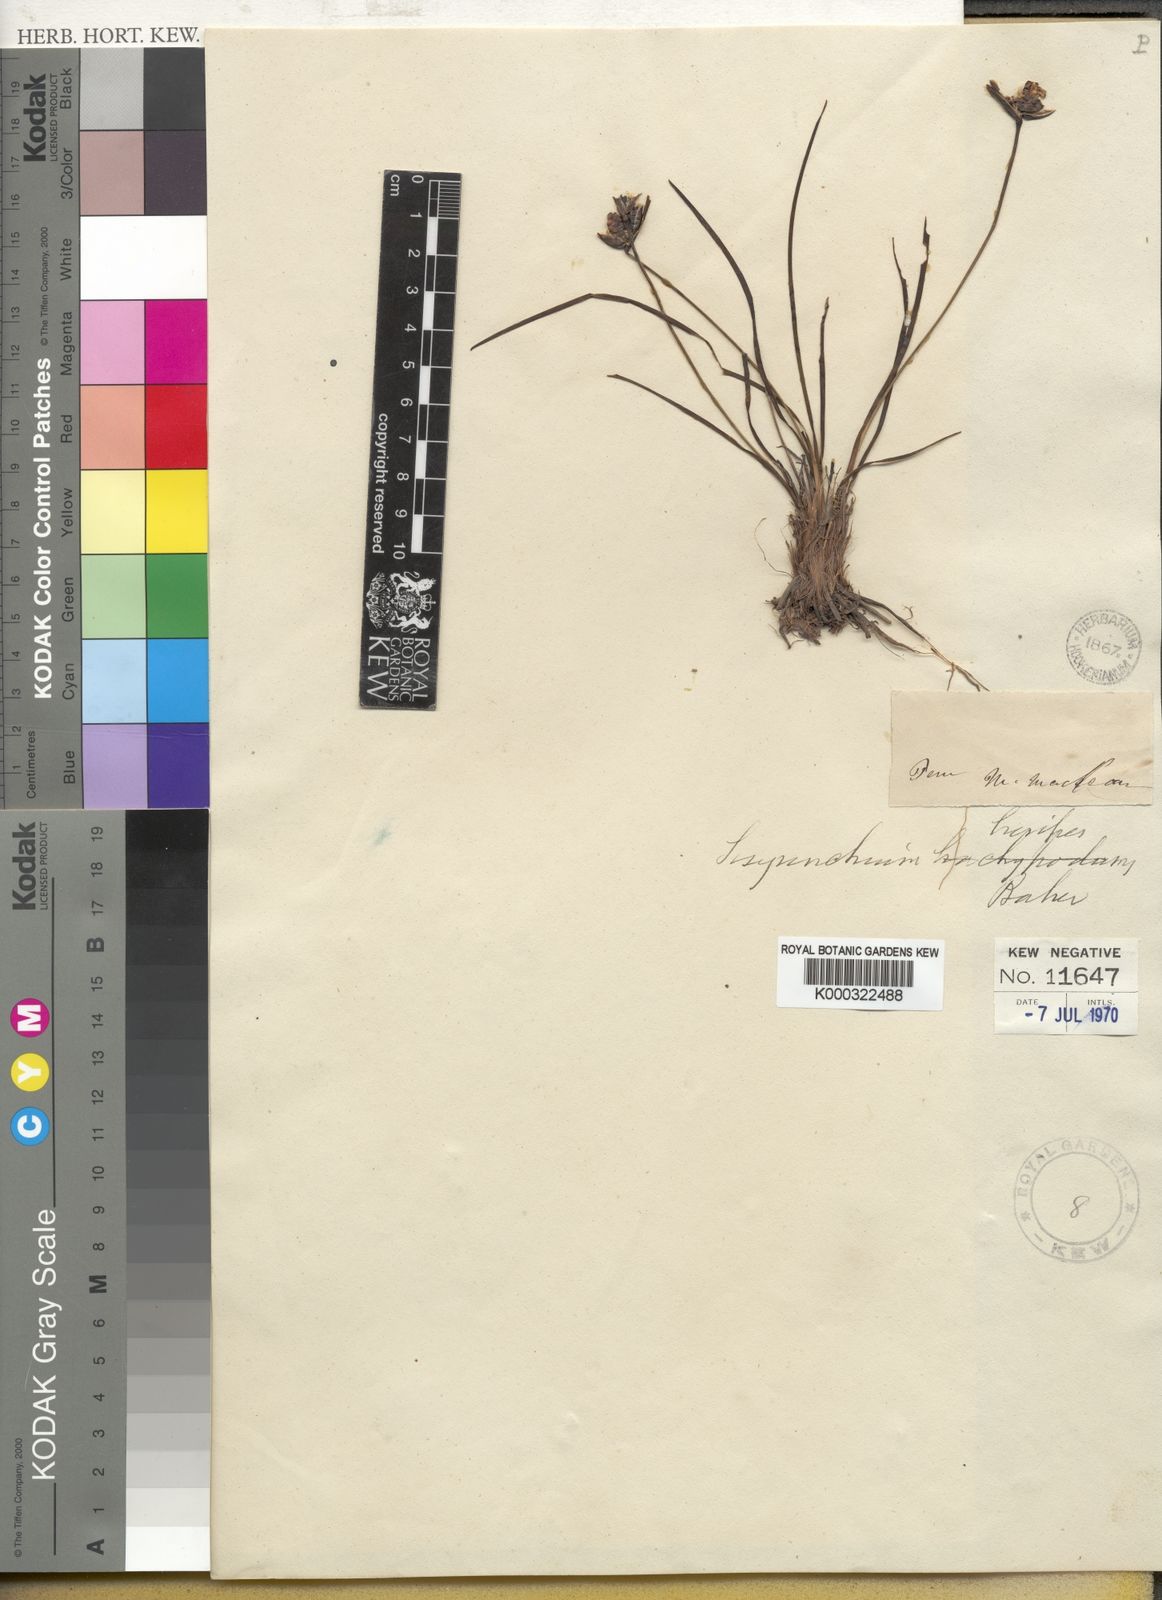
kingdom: Plantae
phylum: Tracheophyta
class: Liliopsida
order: Asparagales
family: Iridaceae
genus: Sisyrinchium
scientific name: Sisyrinchium brevipes
